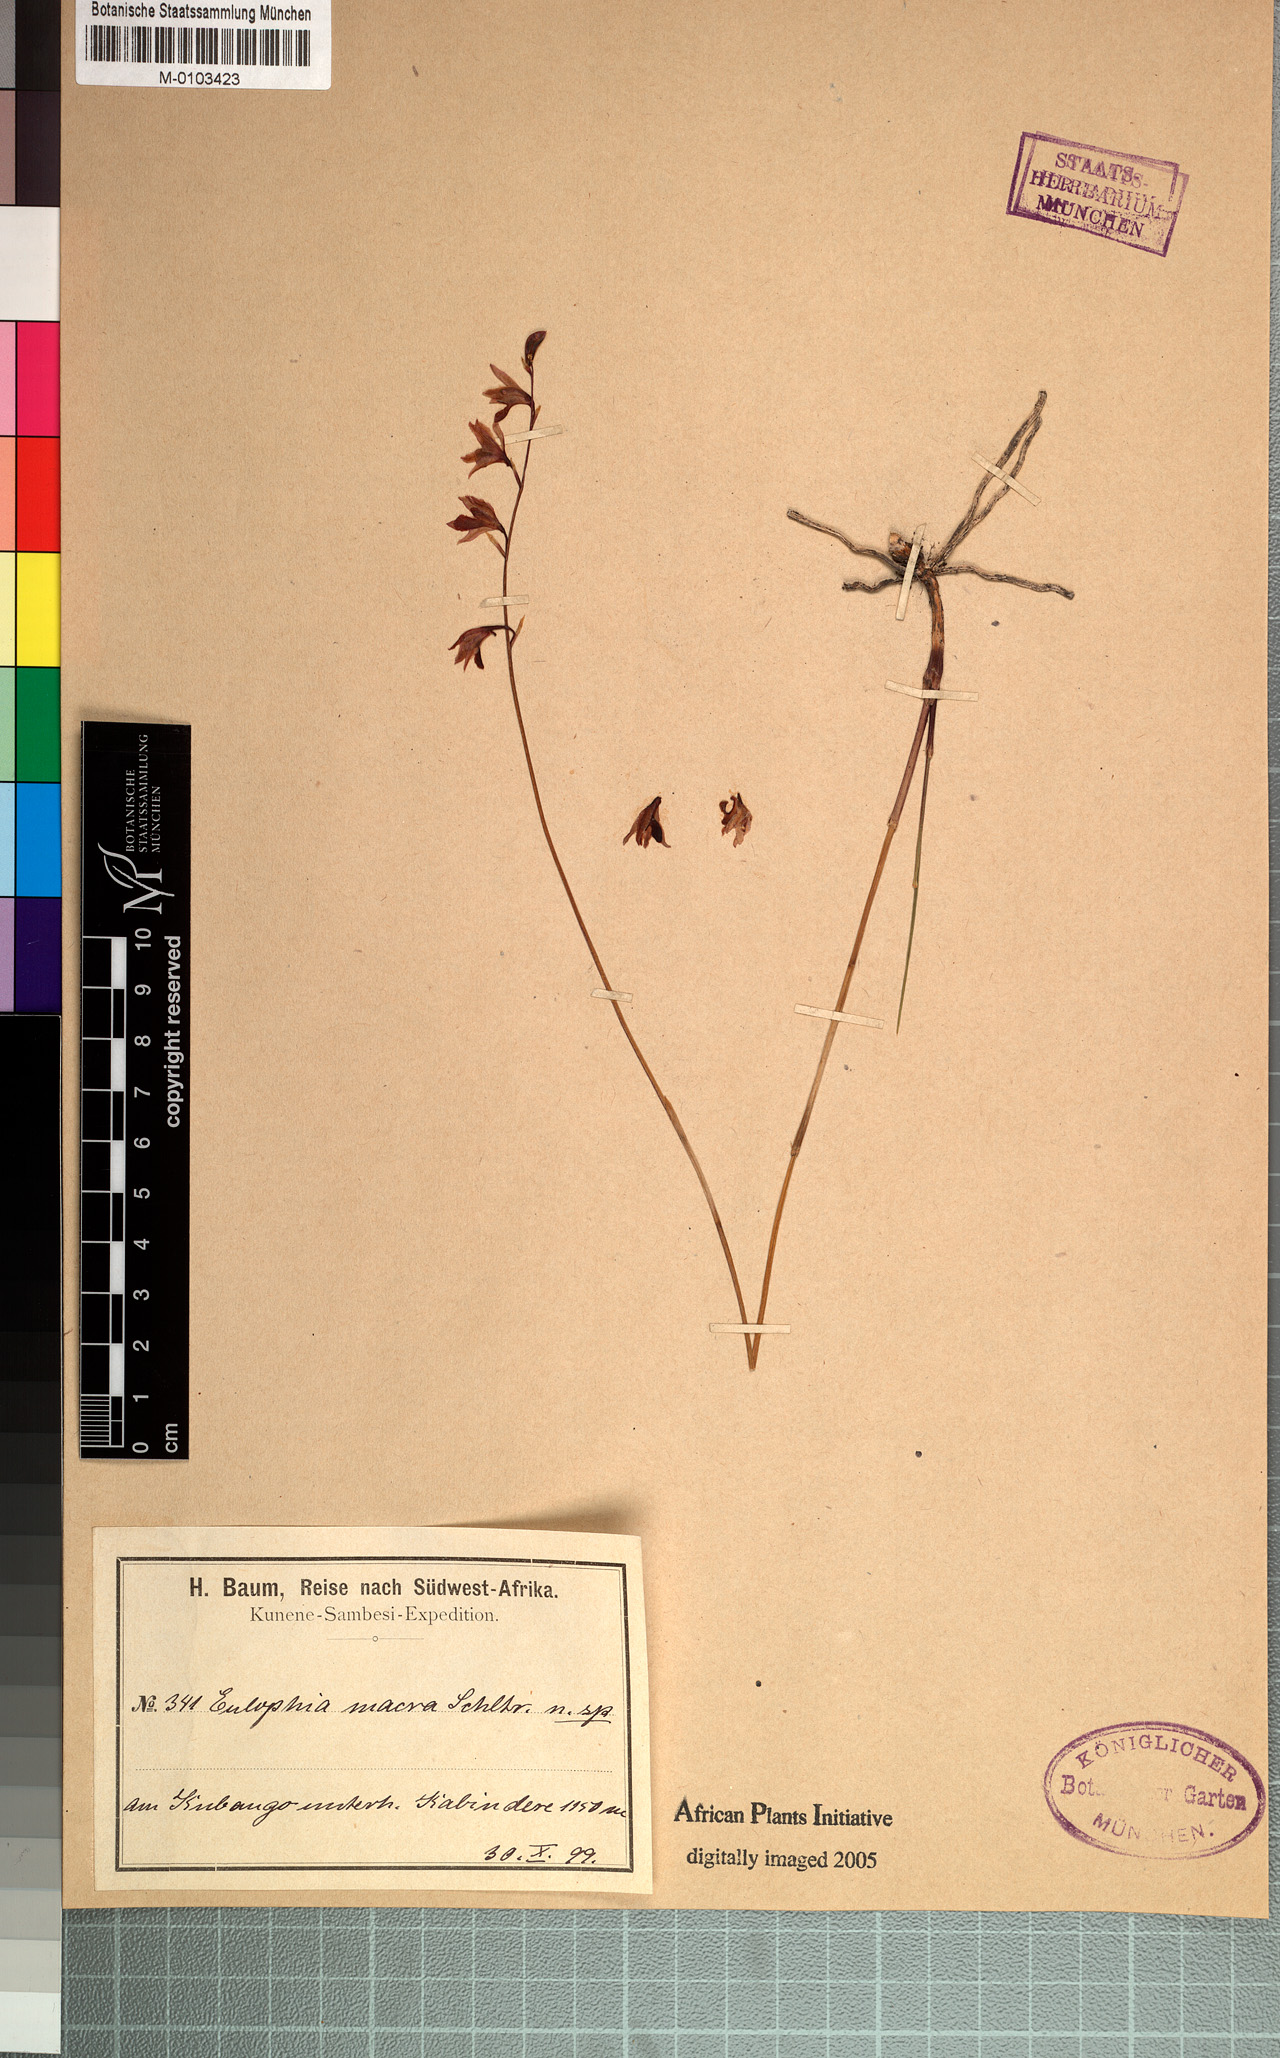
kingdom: Plantae
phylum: Tracheophyta
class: Liliopsida
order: Asparagales
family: Orchidaceae
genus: Eulophia
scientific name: Eulophia trilamellata
